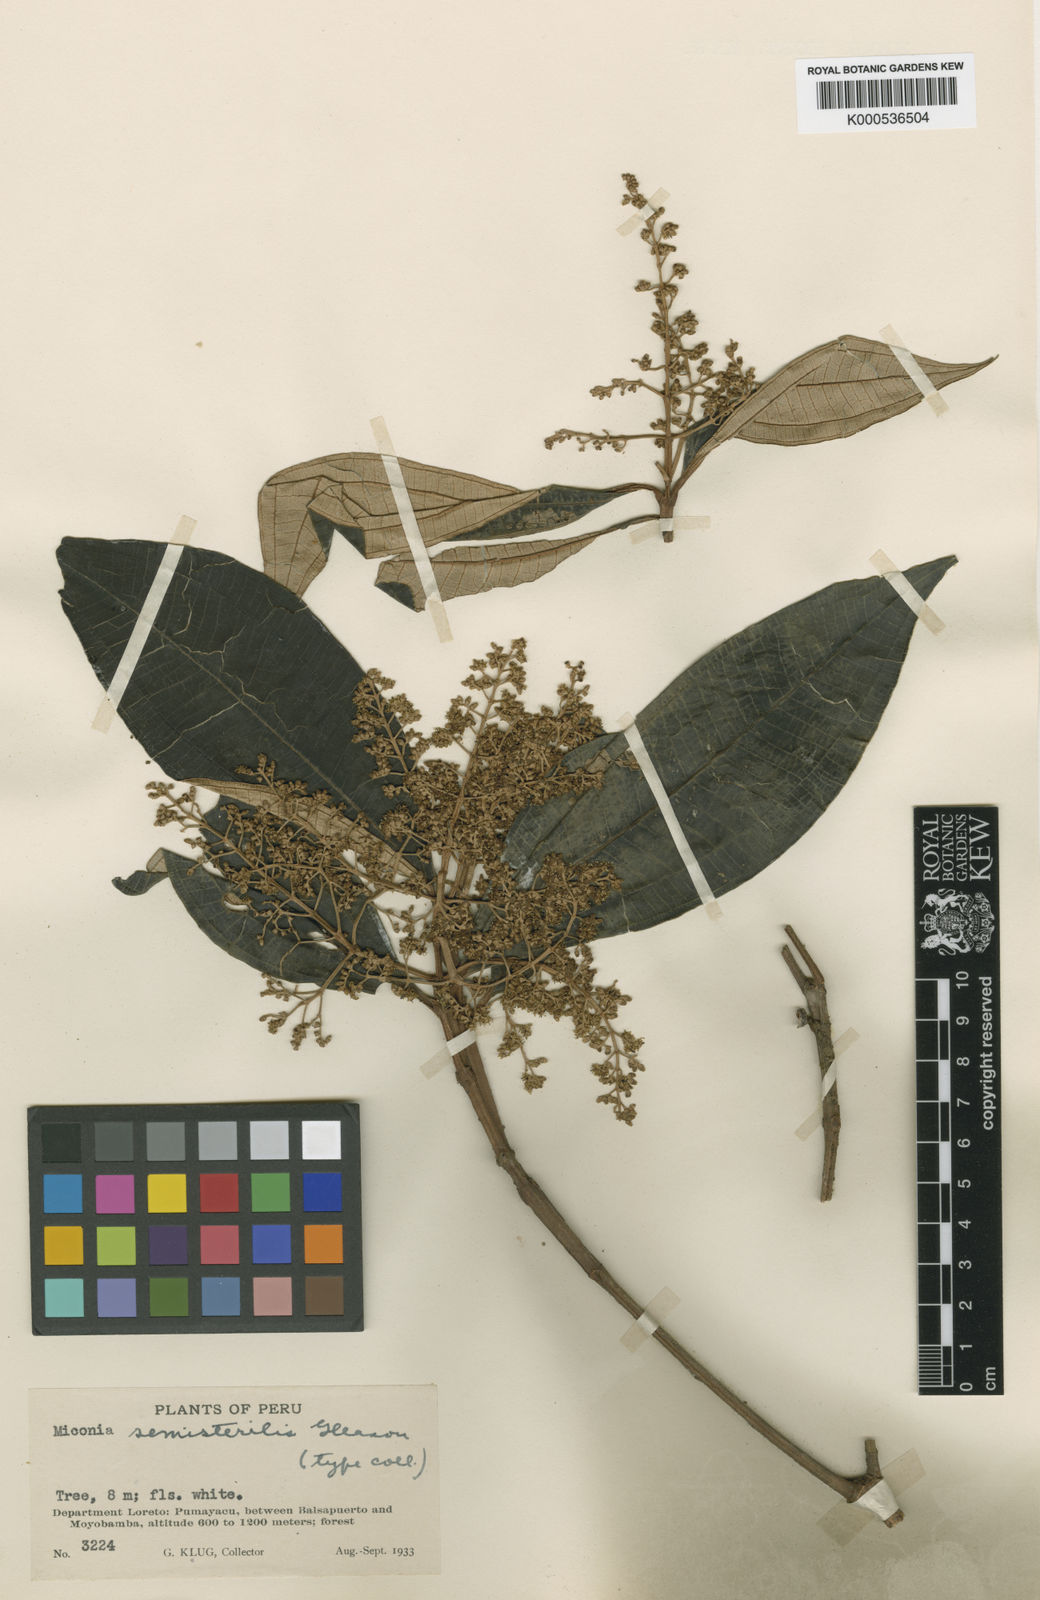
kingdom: Plantae
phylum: Tracheophyta
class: Magnoliopsida
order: Myrtales
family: Melastomataceae
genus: Miconia
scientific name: Miconia semisterilis
